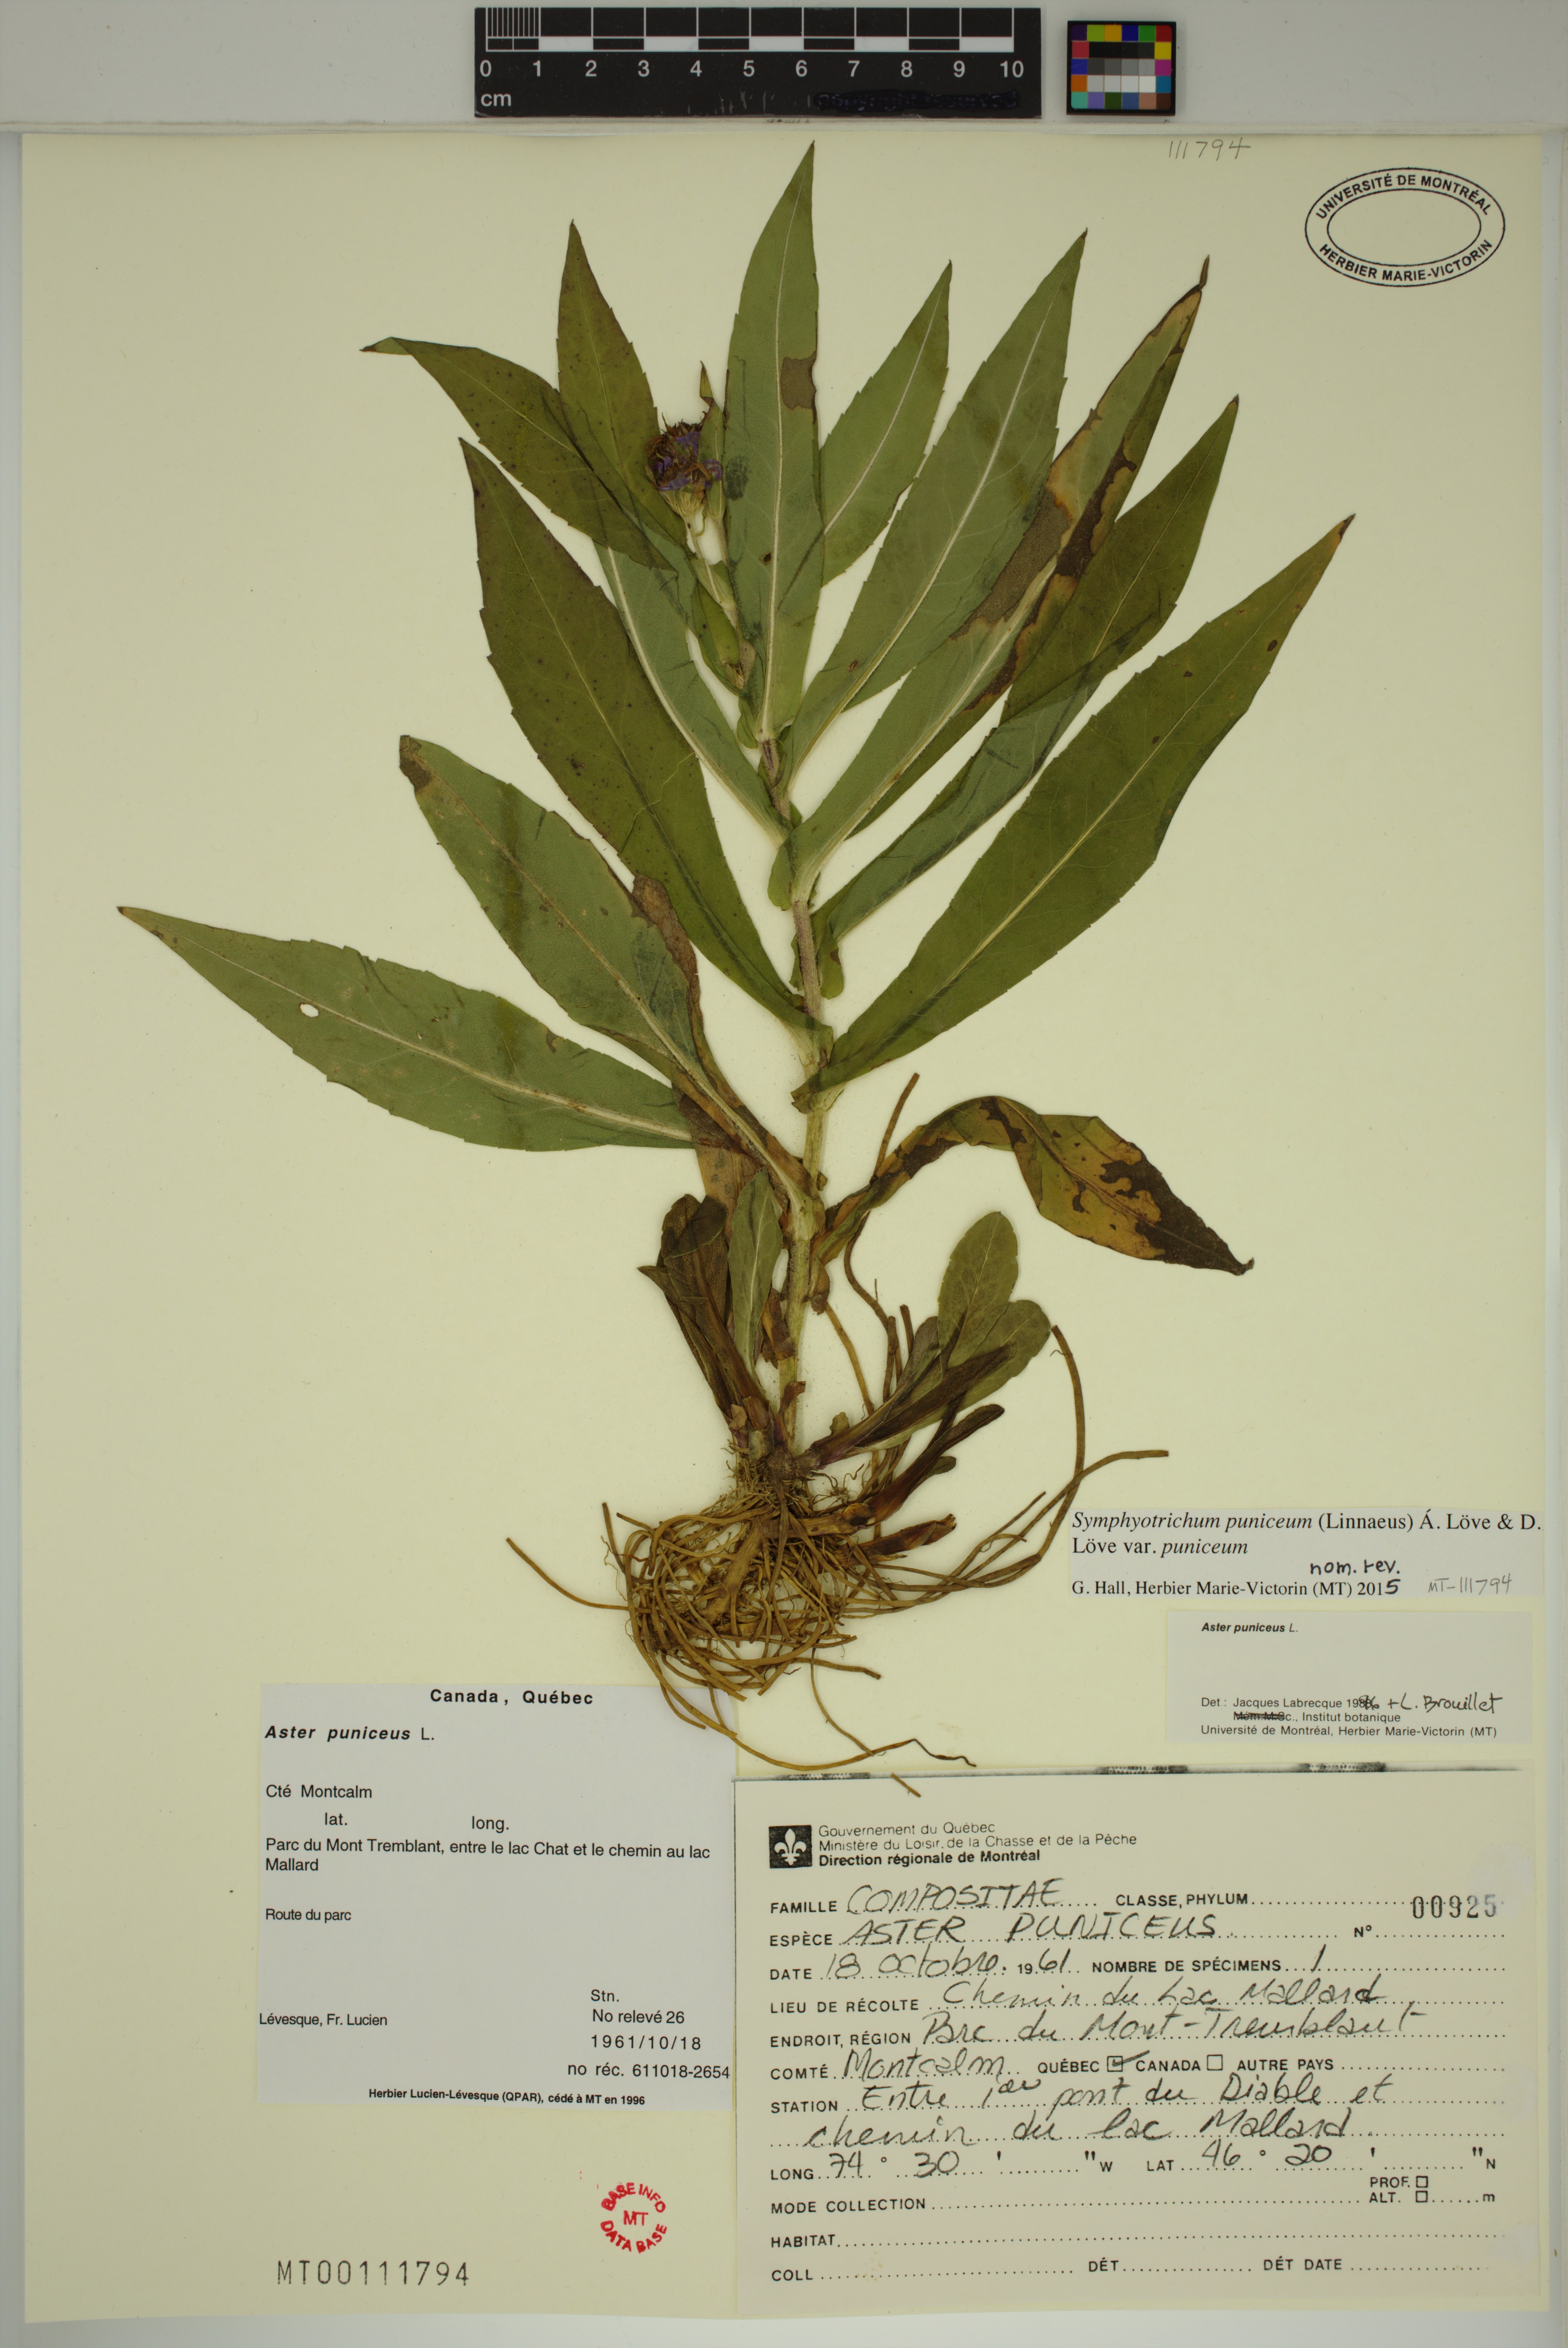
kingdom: Plantae
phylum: Tracheophyta
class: Magnoliopsida
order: Asterales
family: Asteraceae
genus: Symphyotrichum
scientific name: Symphyotrichum puniceum
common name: Bog aster
